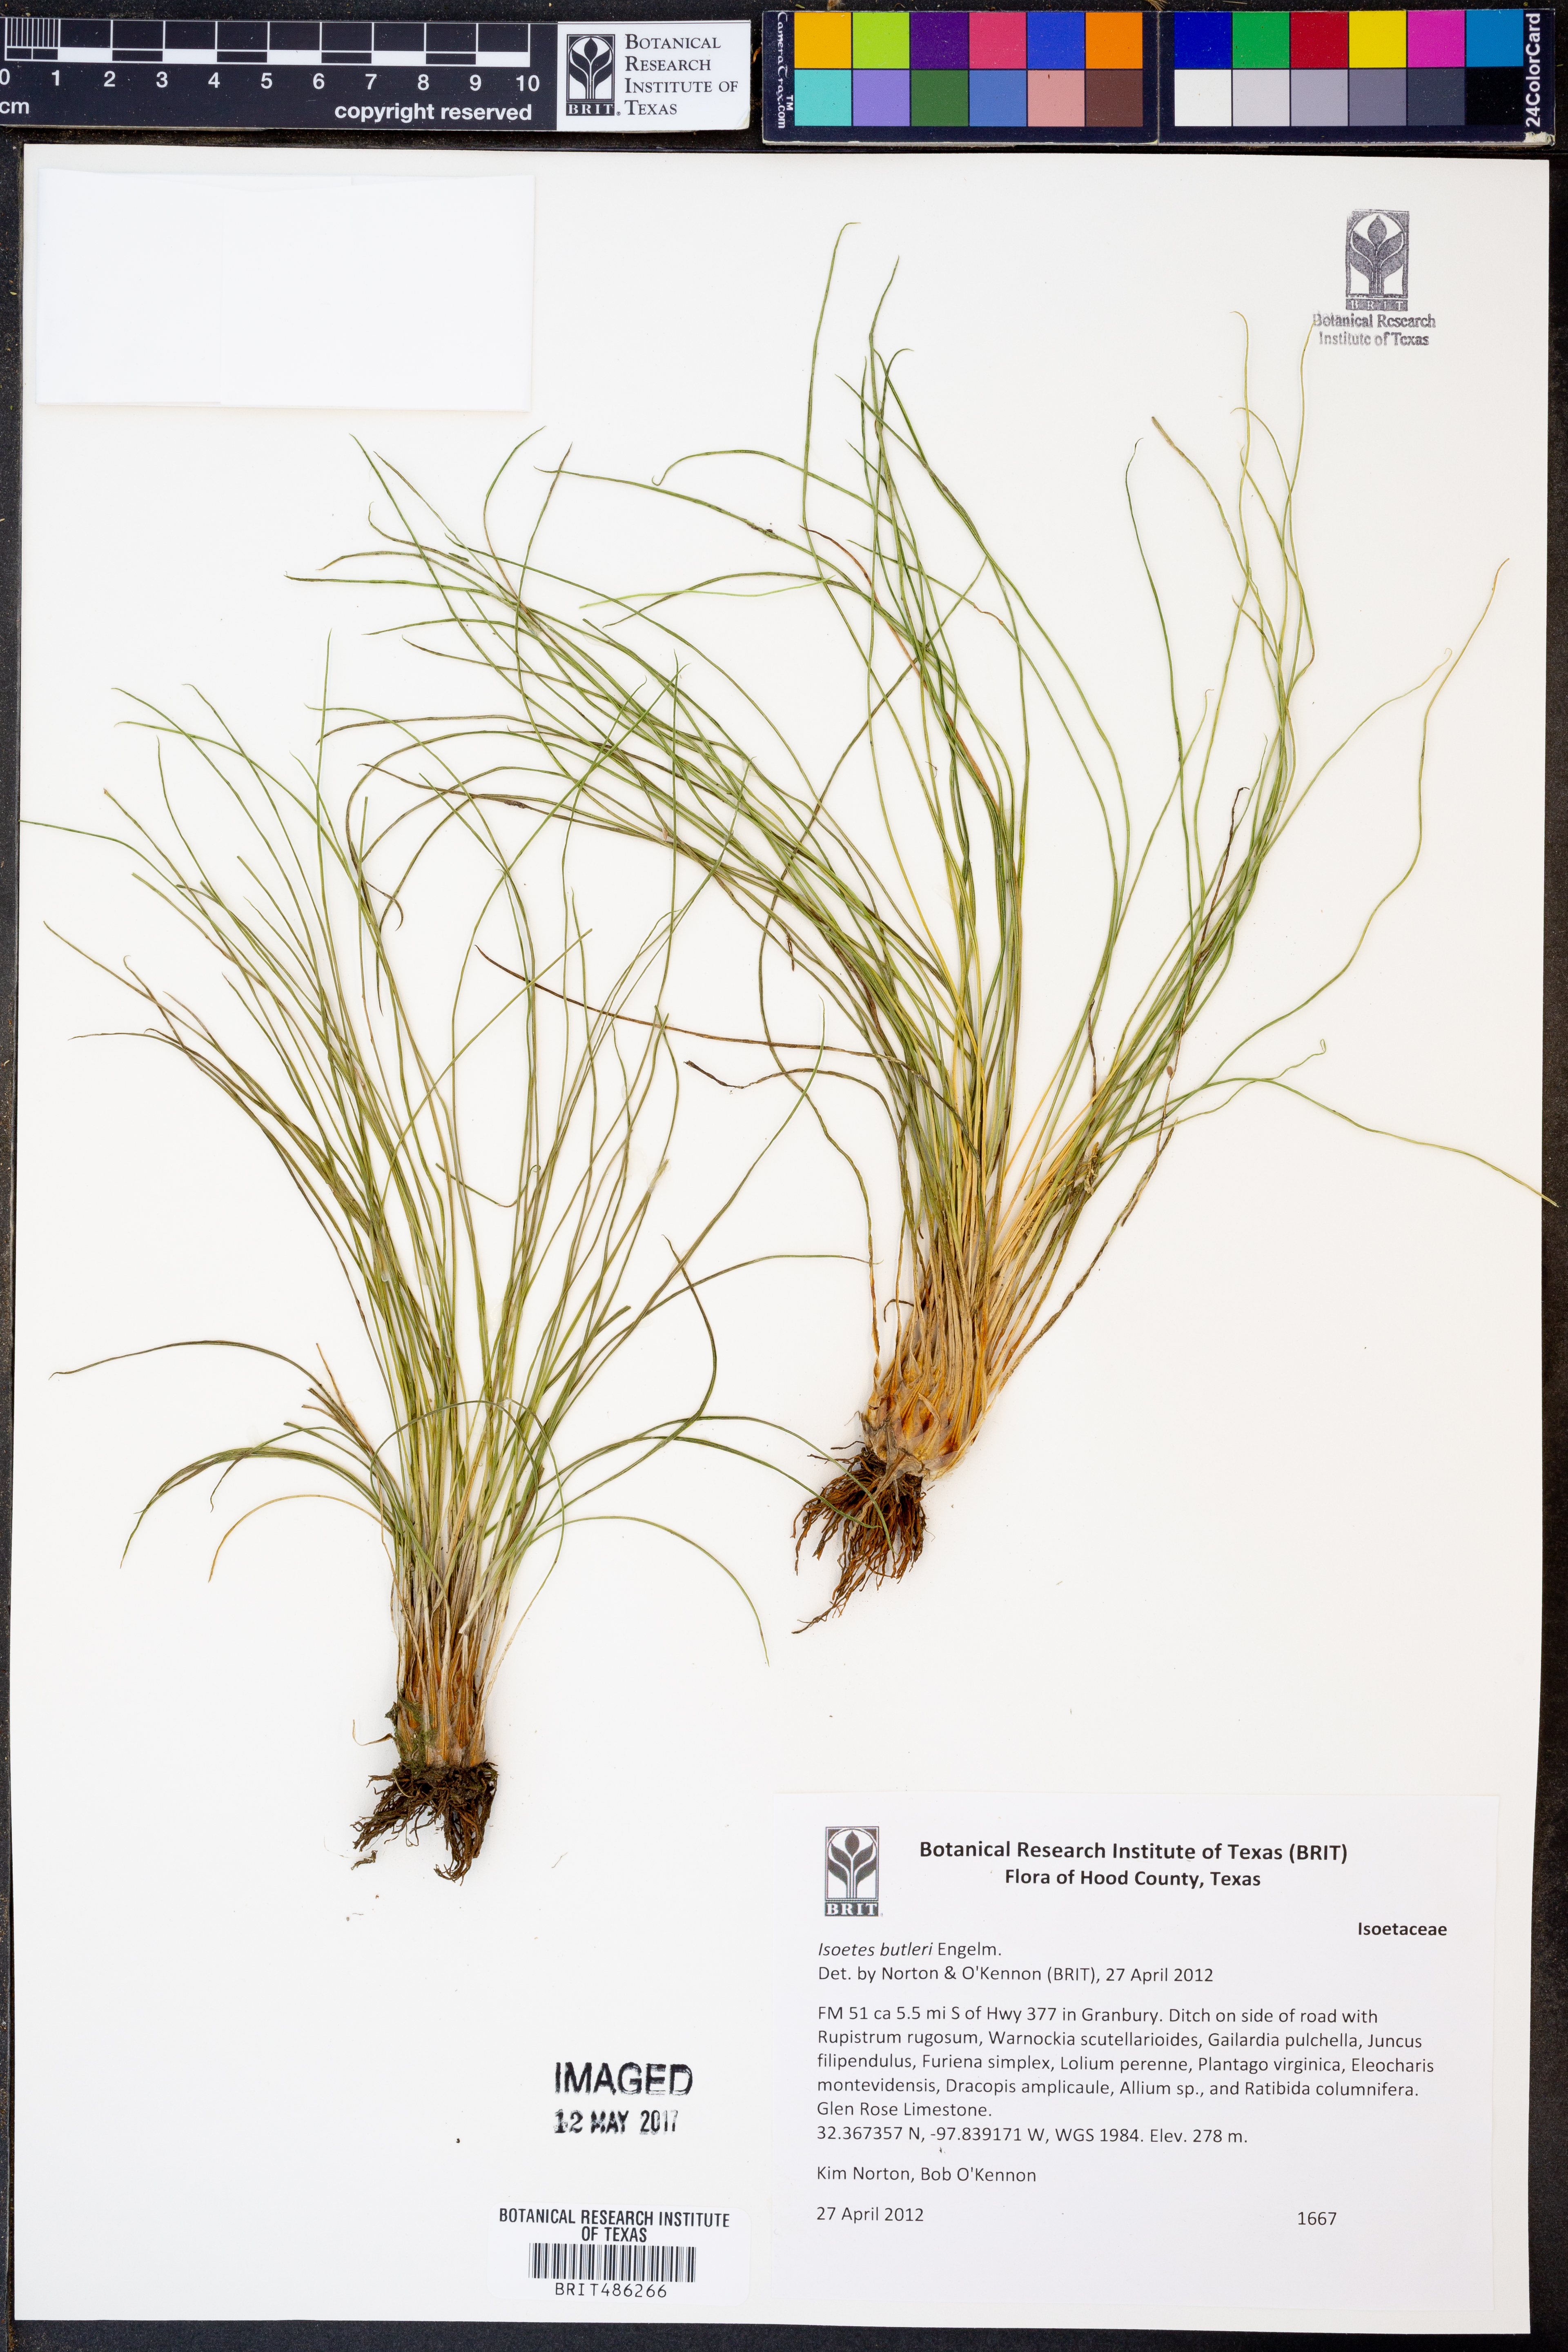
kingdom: Plantae
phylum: Tracheophyta
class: Lycopodiopsida
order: Isoetales
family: Isoetaceae
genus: Isoetes
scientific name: Isoetes butleri
